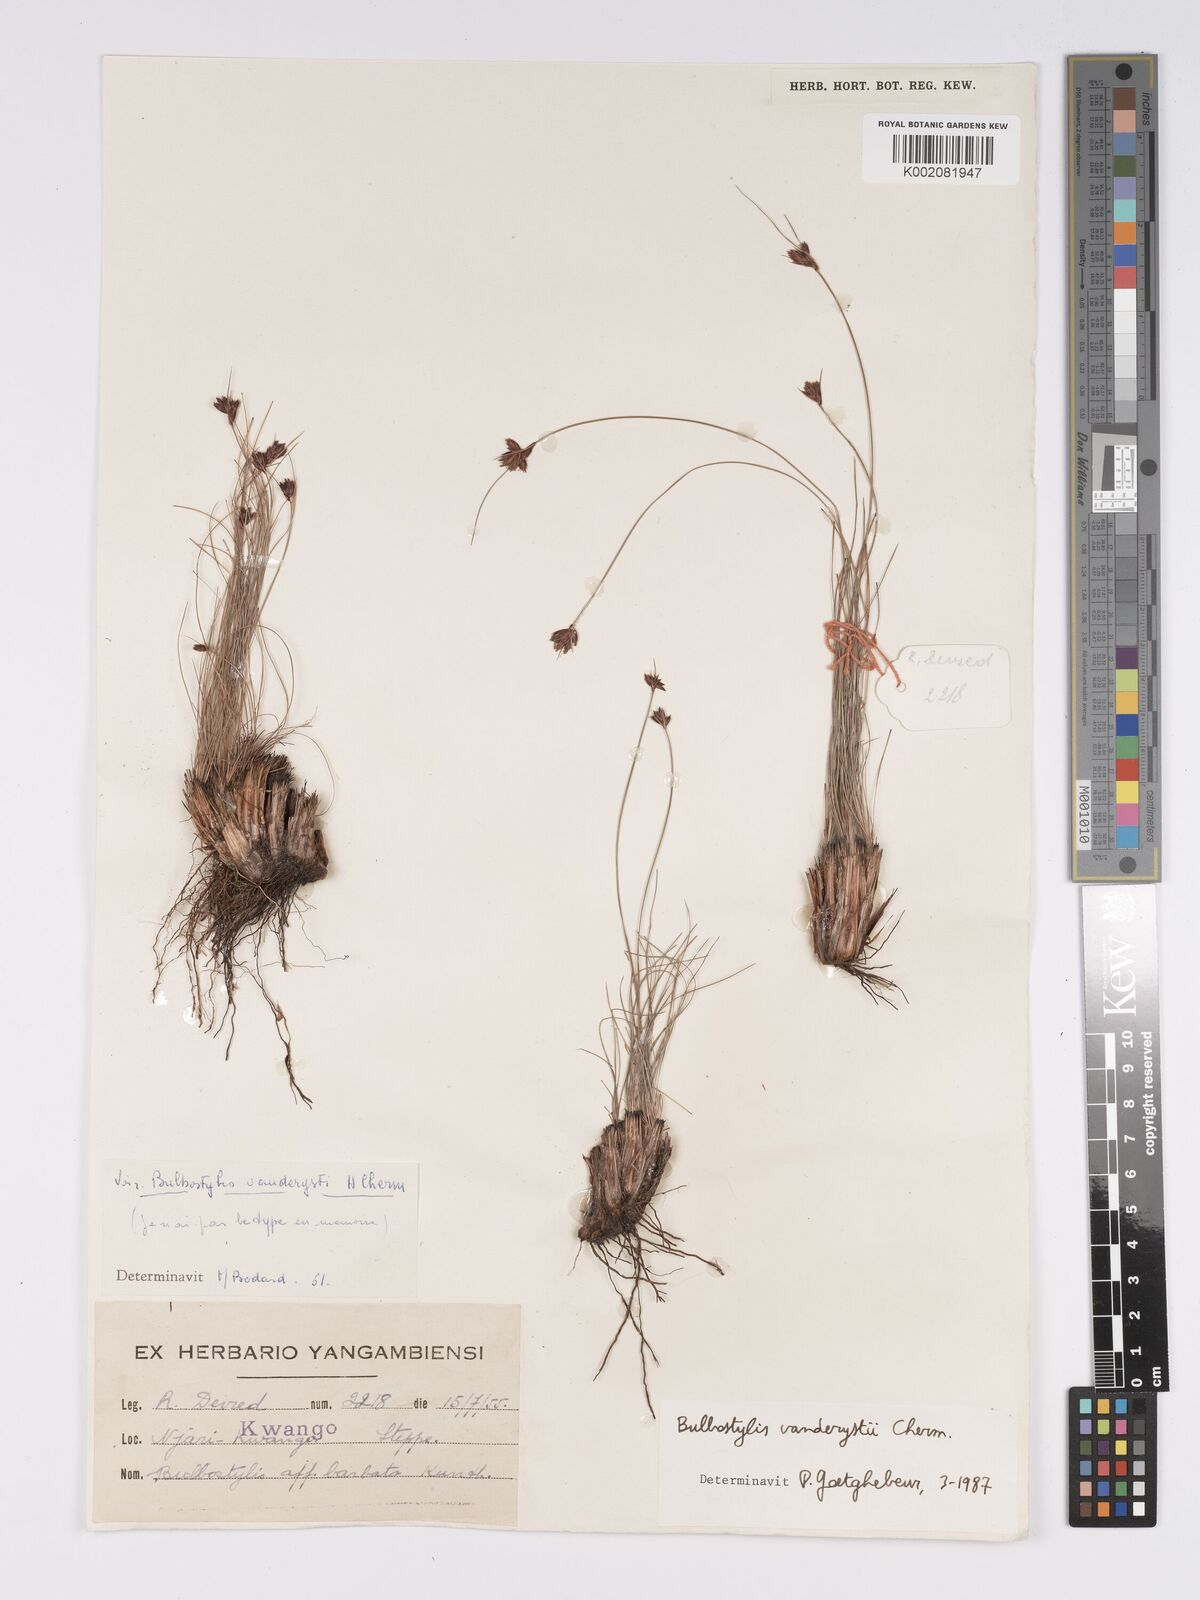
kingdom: Plantae
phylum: Tracheophyta
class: Liliopsida
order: Poales
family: Cyperaceae
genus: Bulbostylis
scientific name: Bulbostylis vanderystii
